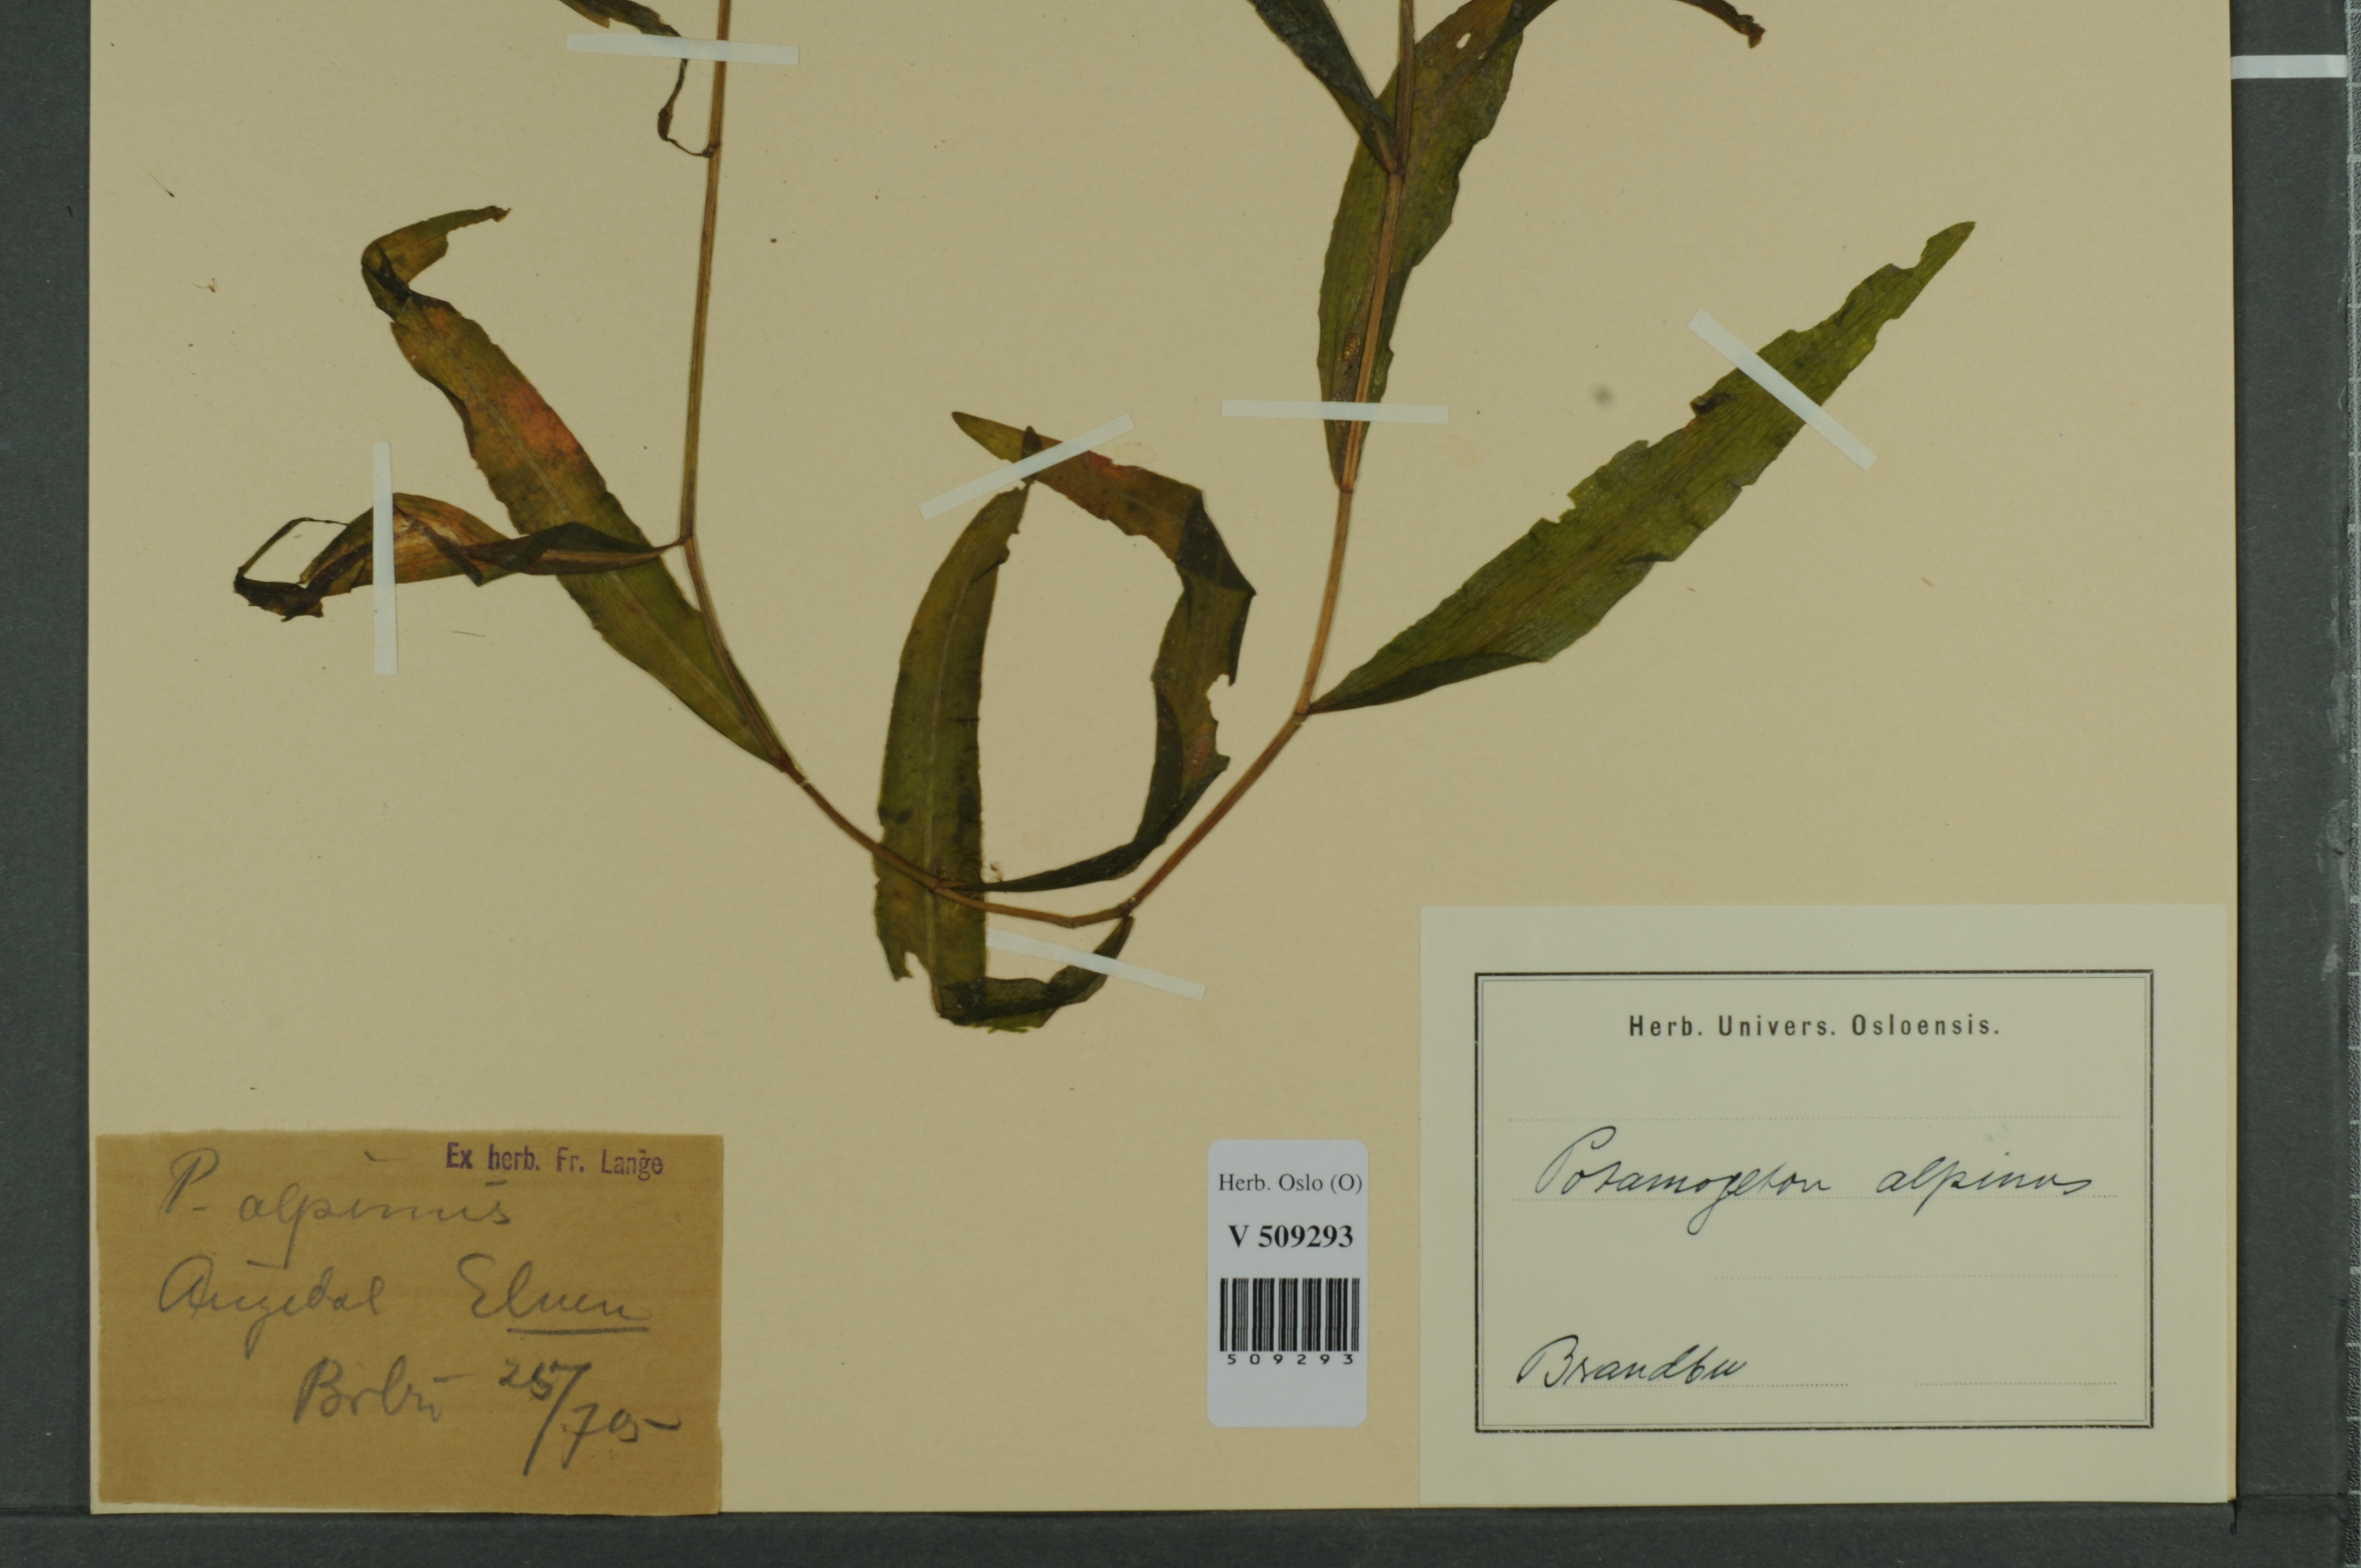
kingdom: Plantae
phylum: Tracheophyta
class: Liliopsida
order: Alismatales
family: Potamogetonaceae
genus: Potamogeton
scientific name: Potamogeton alpinus
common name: Red pondweed
